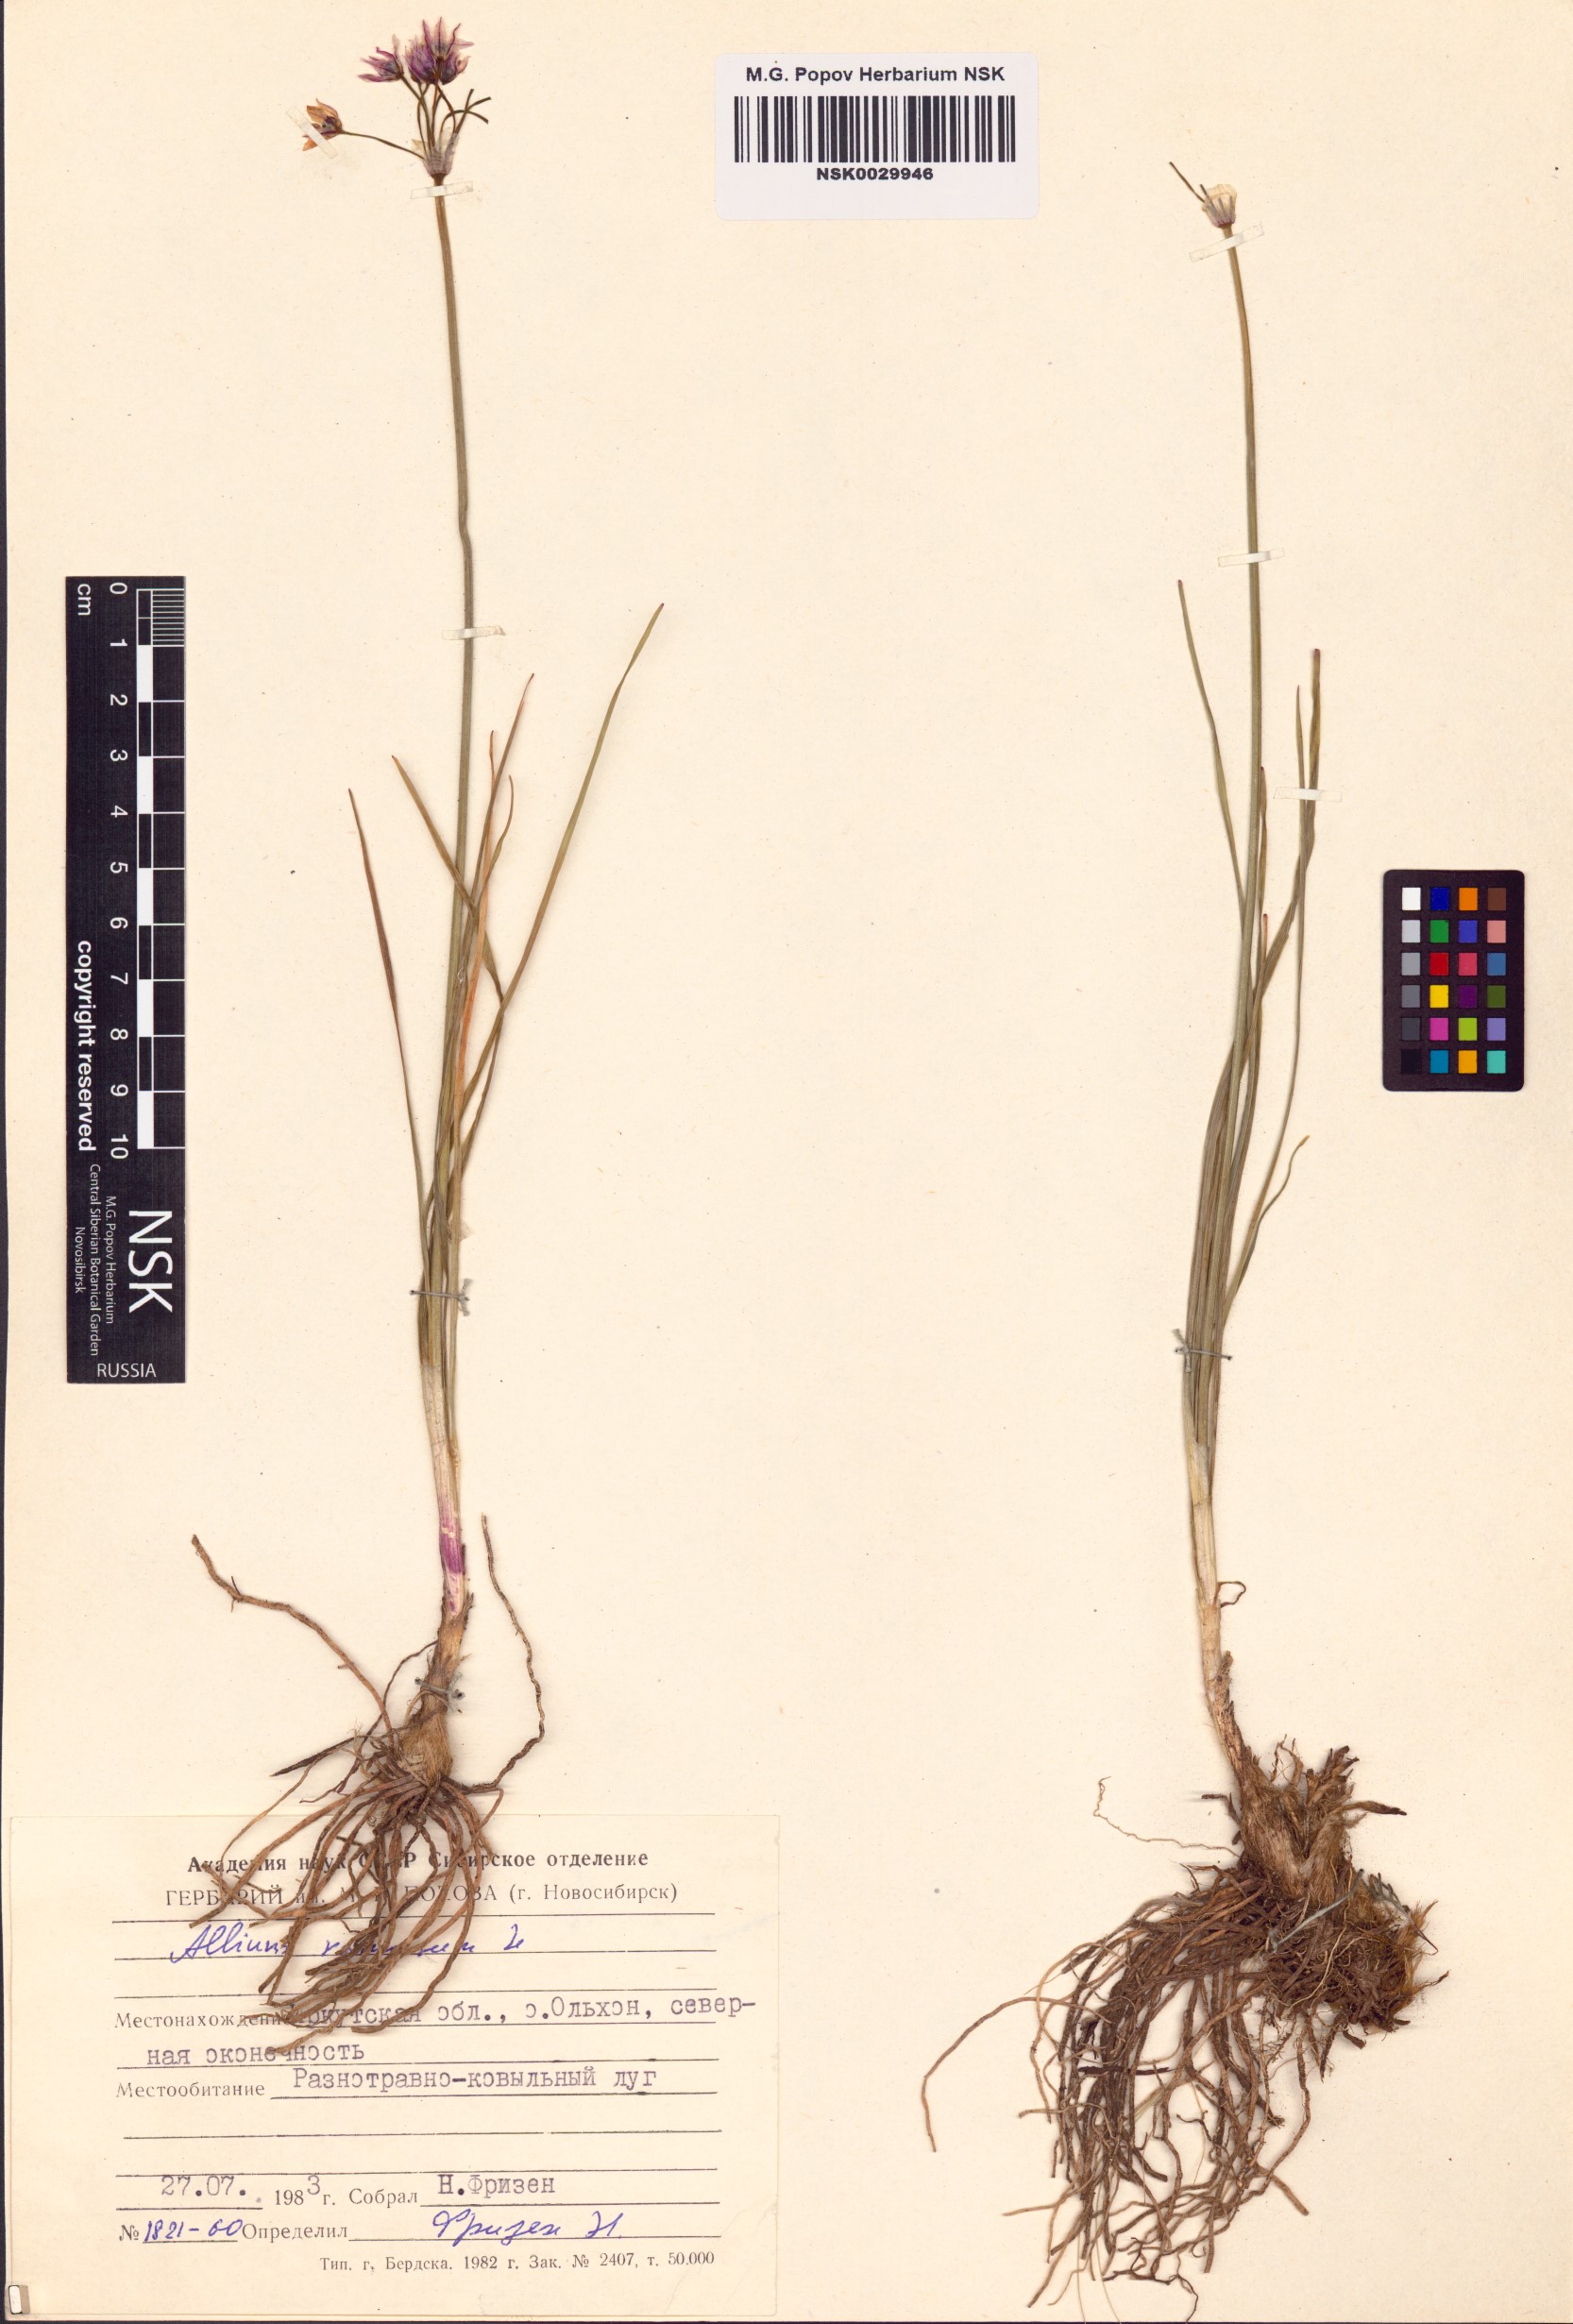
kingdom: Plantae
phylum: Tracheophyta
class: Liliopsida
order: Asparagales
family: Amaryllidaceae
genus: Allium
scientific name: Allium ramosum
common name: Fragrant garlic
